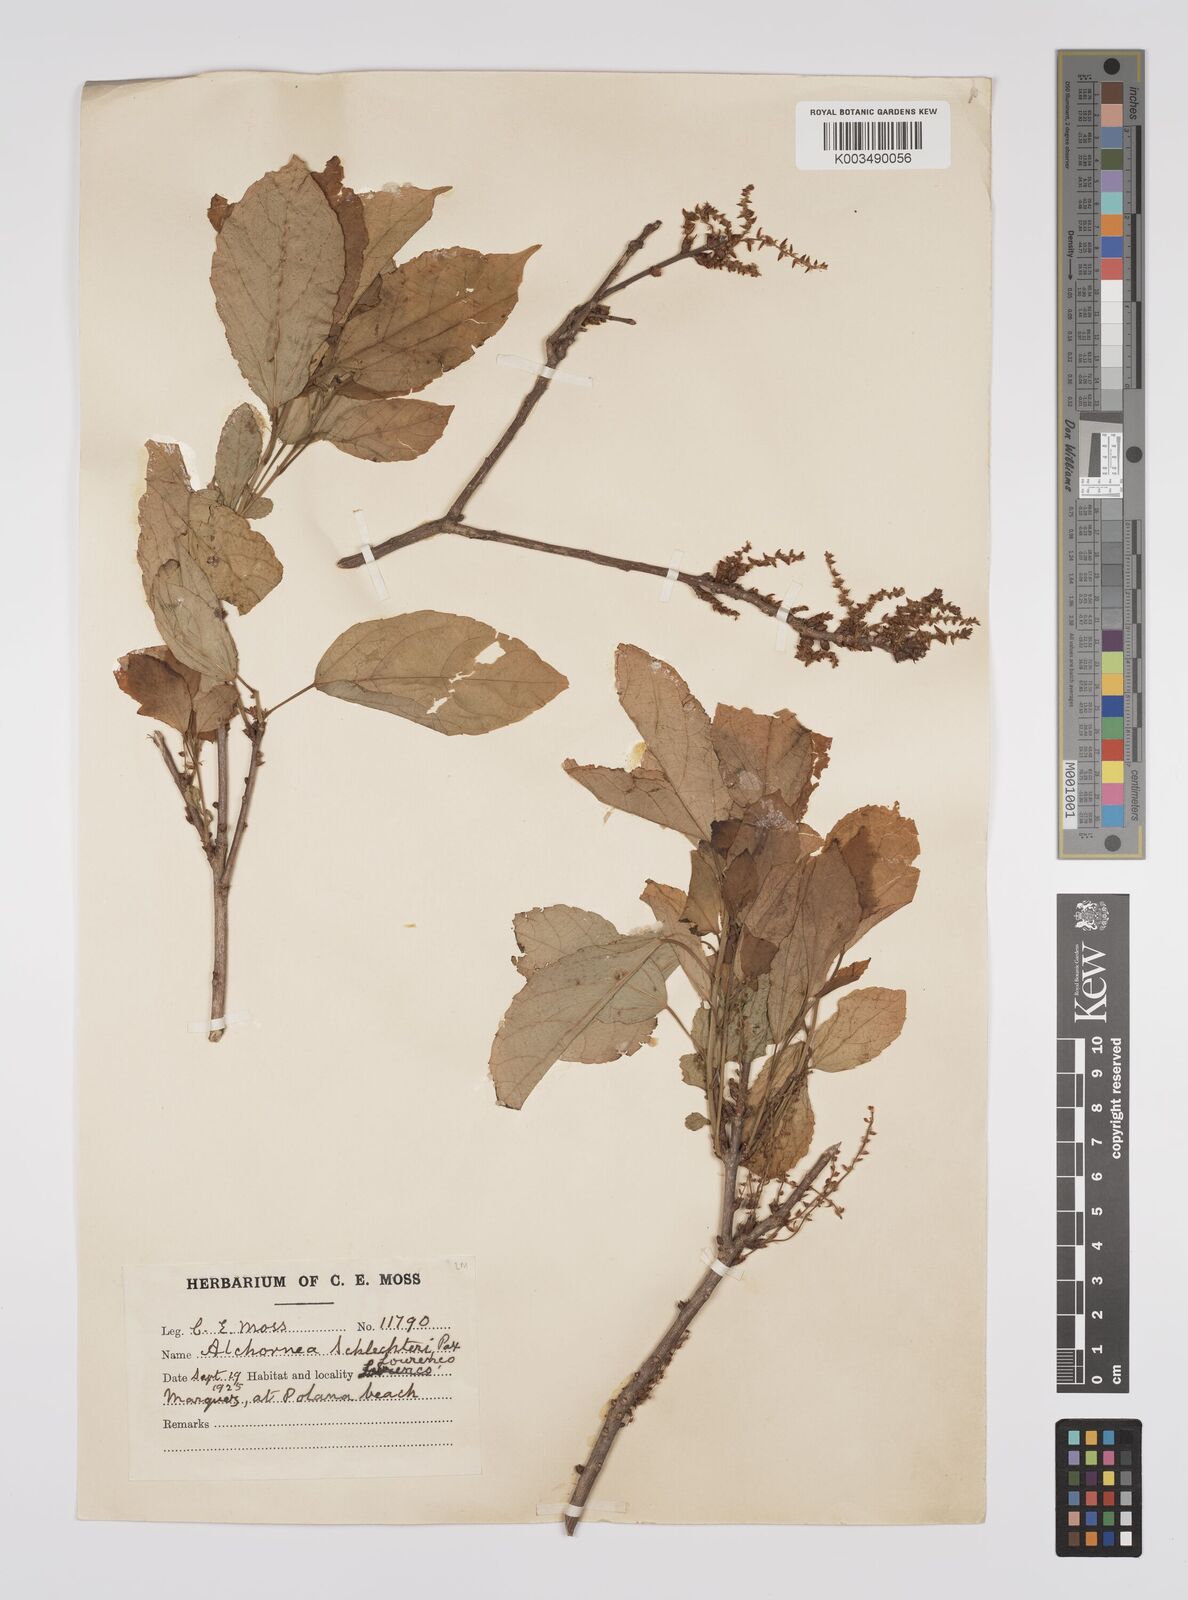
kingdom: Plantae
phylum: Tracheophyta
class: Magnoliopsida
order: Malpighiales
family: Euphorbiaceae
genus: Alchornea
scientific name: Alchornea laxiflora
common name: Lowveld bead-string
